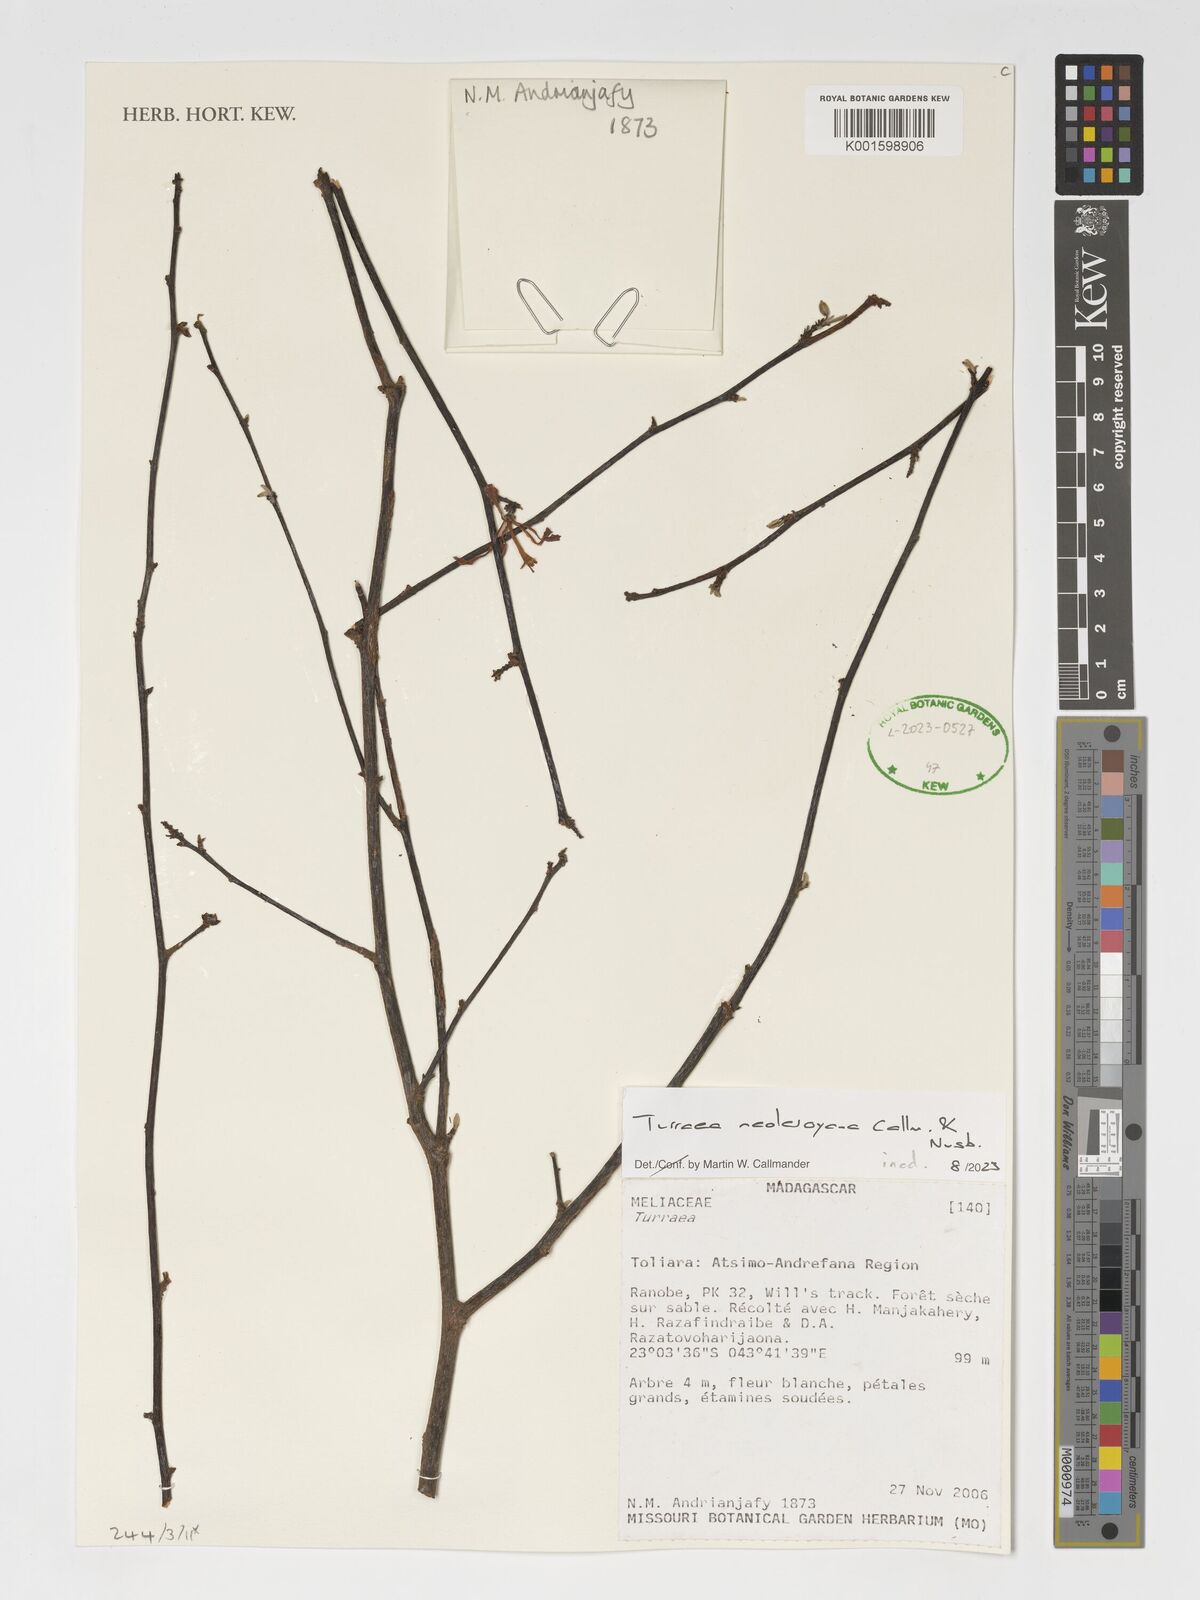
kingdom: Plantae
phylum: Tracheophyta
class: Magnoliopsida
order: Sapindales
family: Meliaceae
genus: Turraea
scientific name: Turraea
